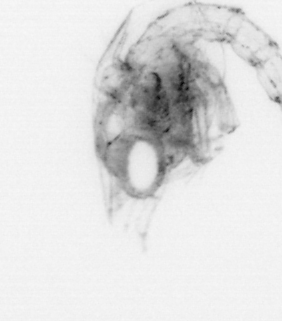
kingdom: Animalia
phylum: Arthropoda
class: Malacostraca
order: Decapoda
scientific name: Decapoda
